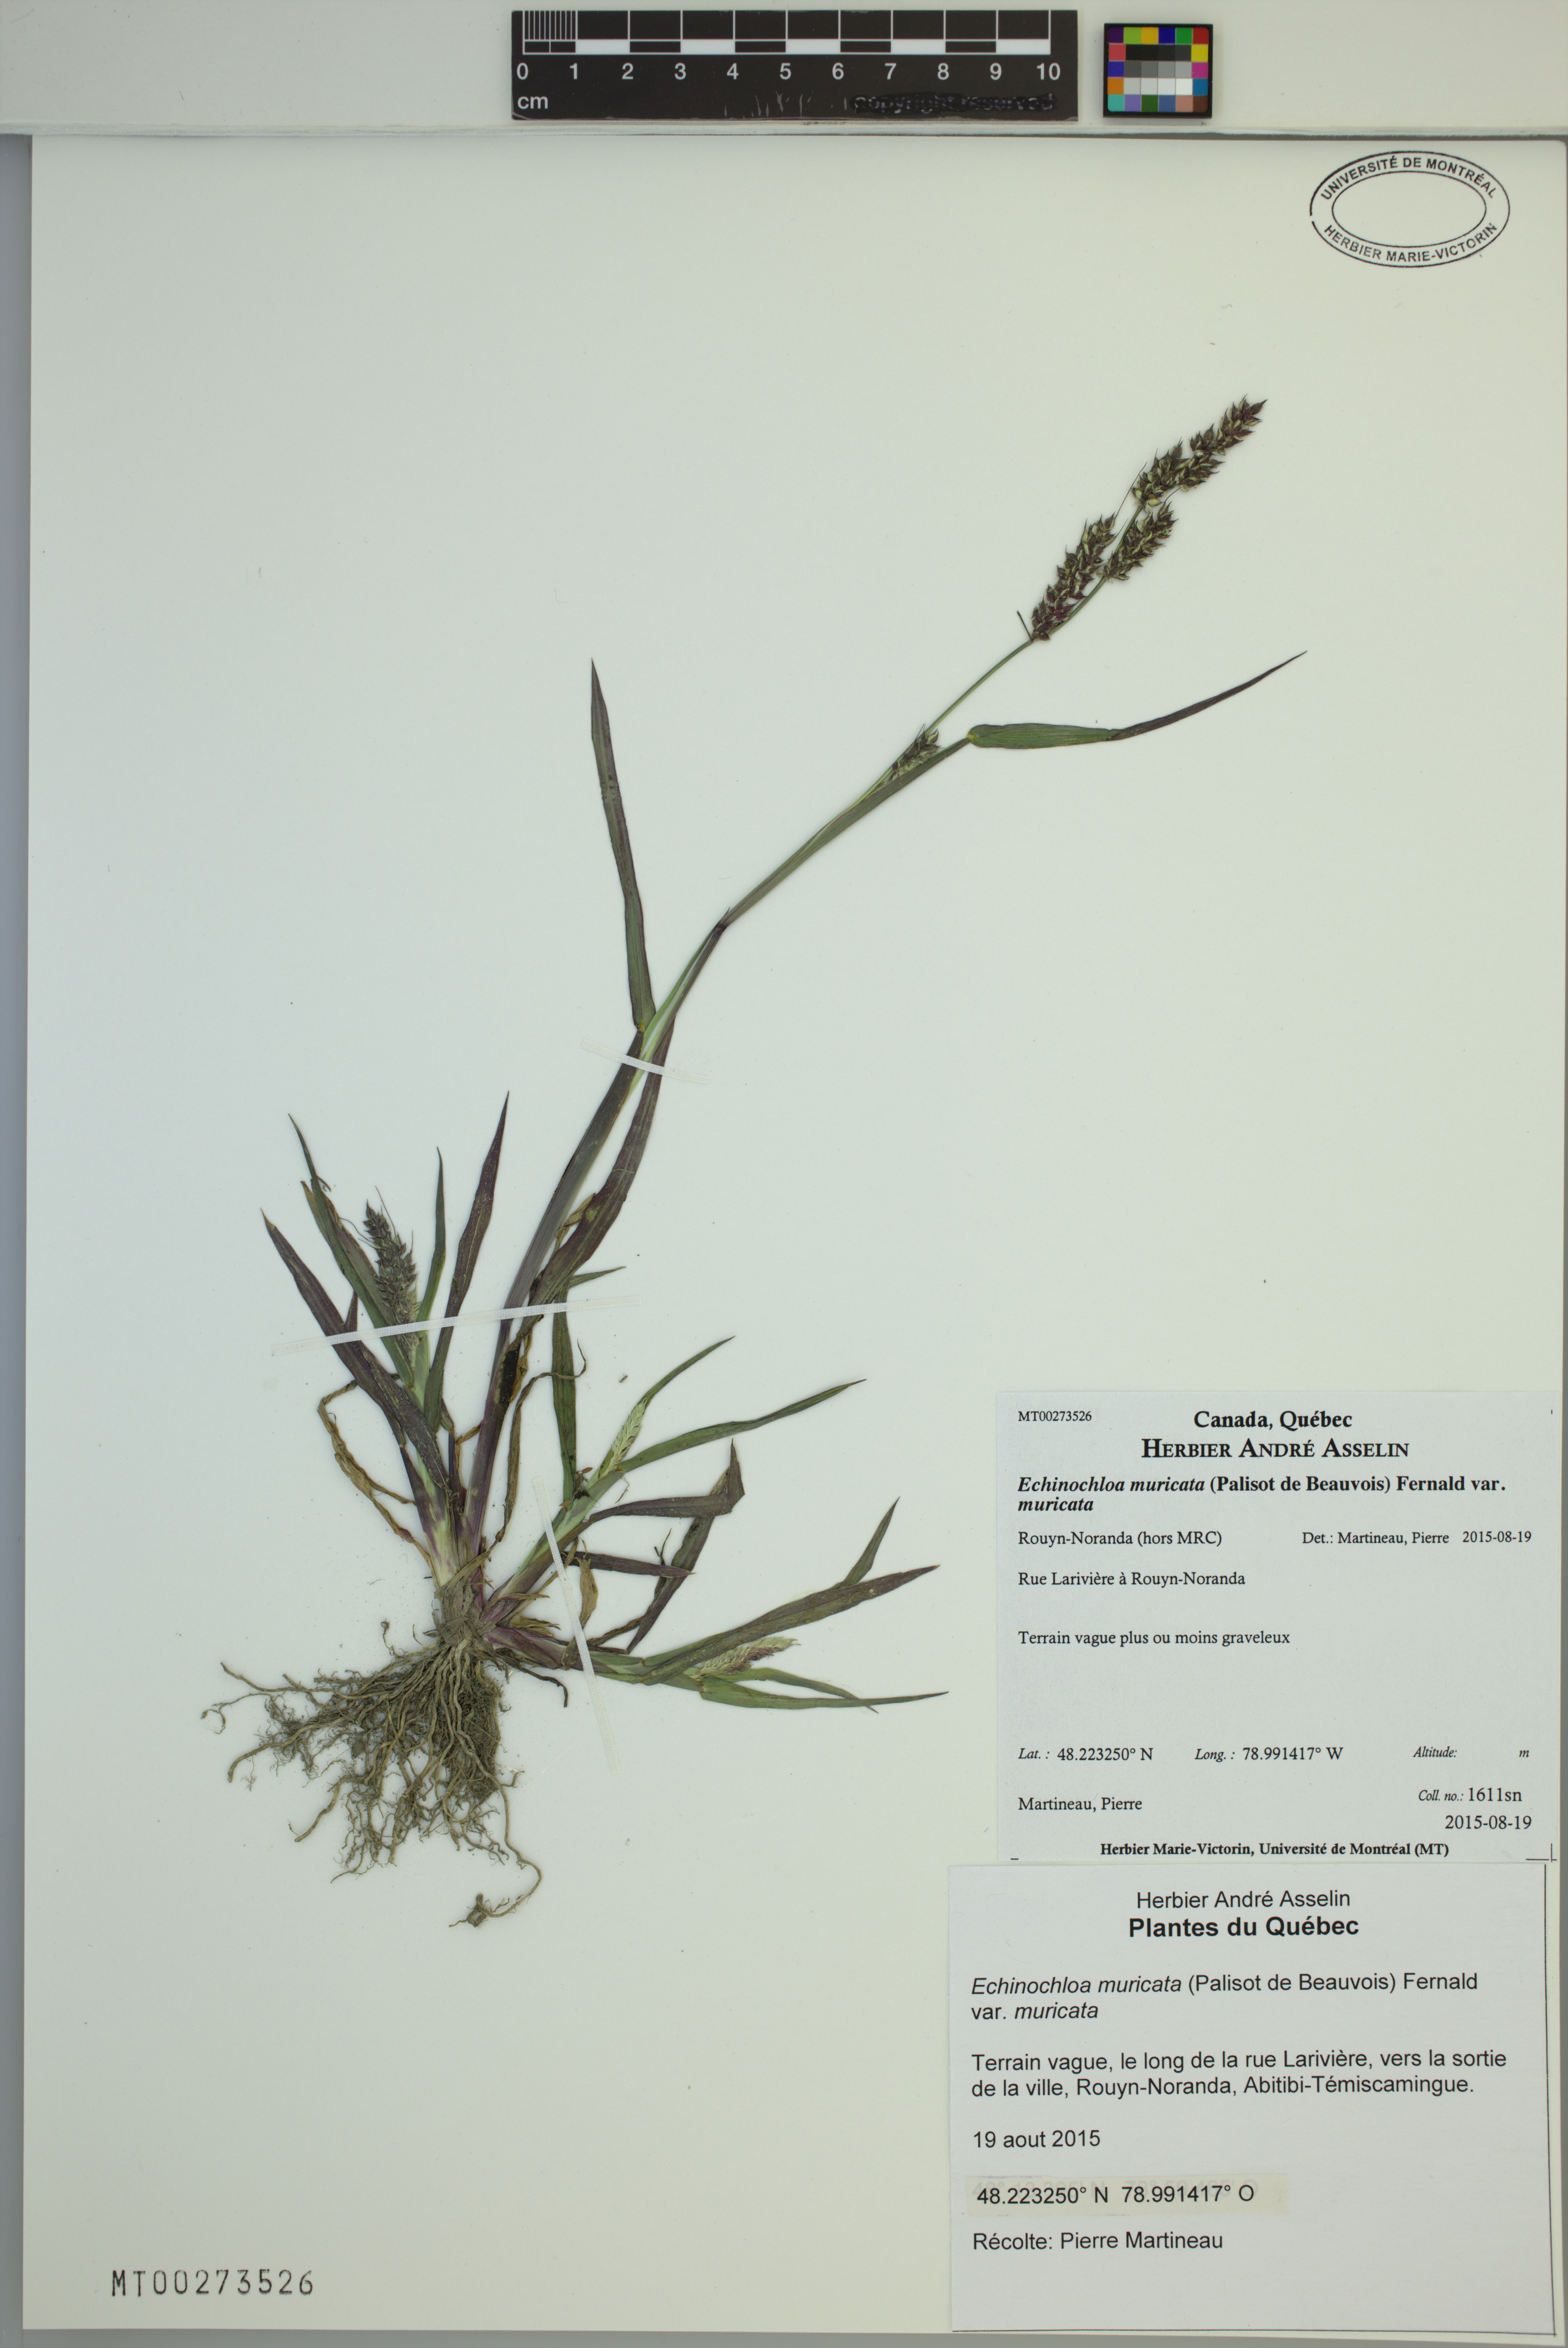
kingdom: Plantae
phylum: Tracheophyta
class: Liliopsida
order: Poales
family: Poaceae
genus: Echinochloa
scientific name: Echinochloa muricata
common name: American barnyard grass
